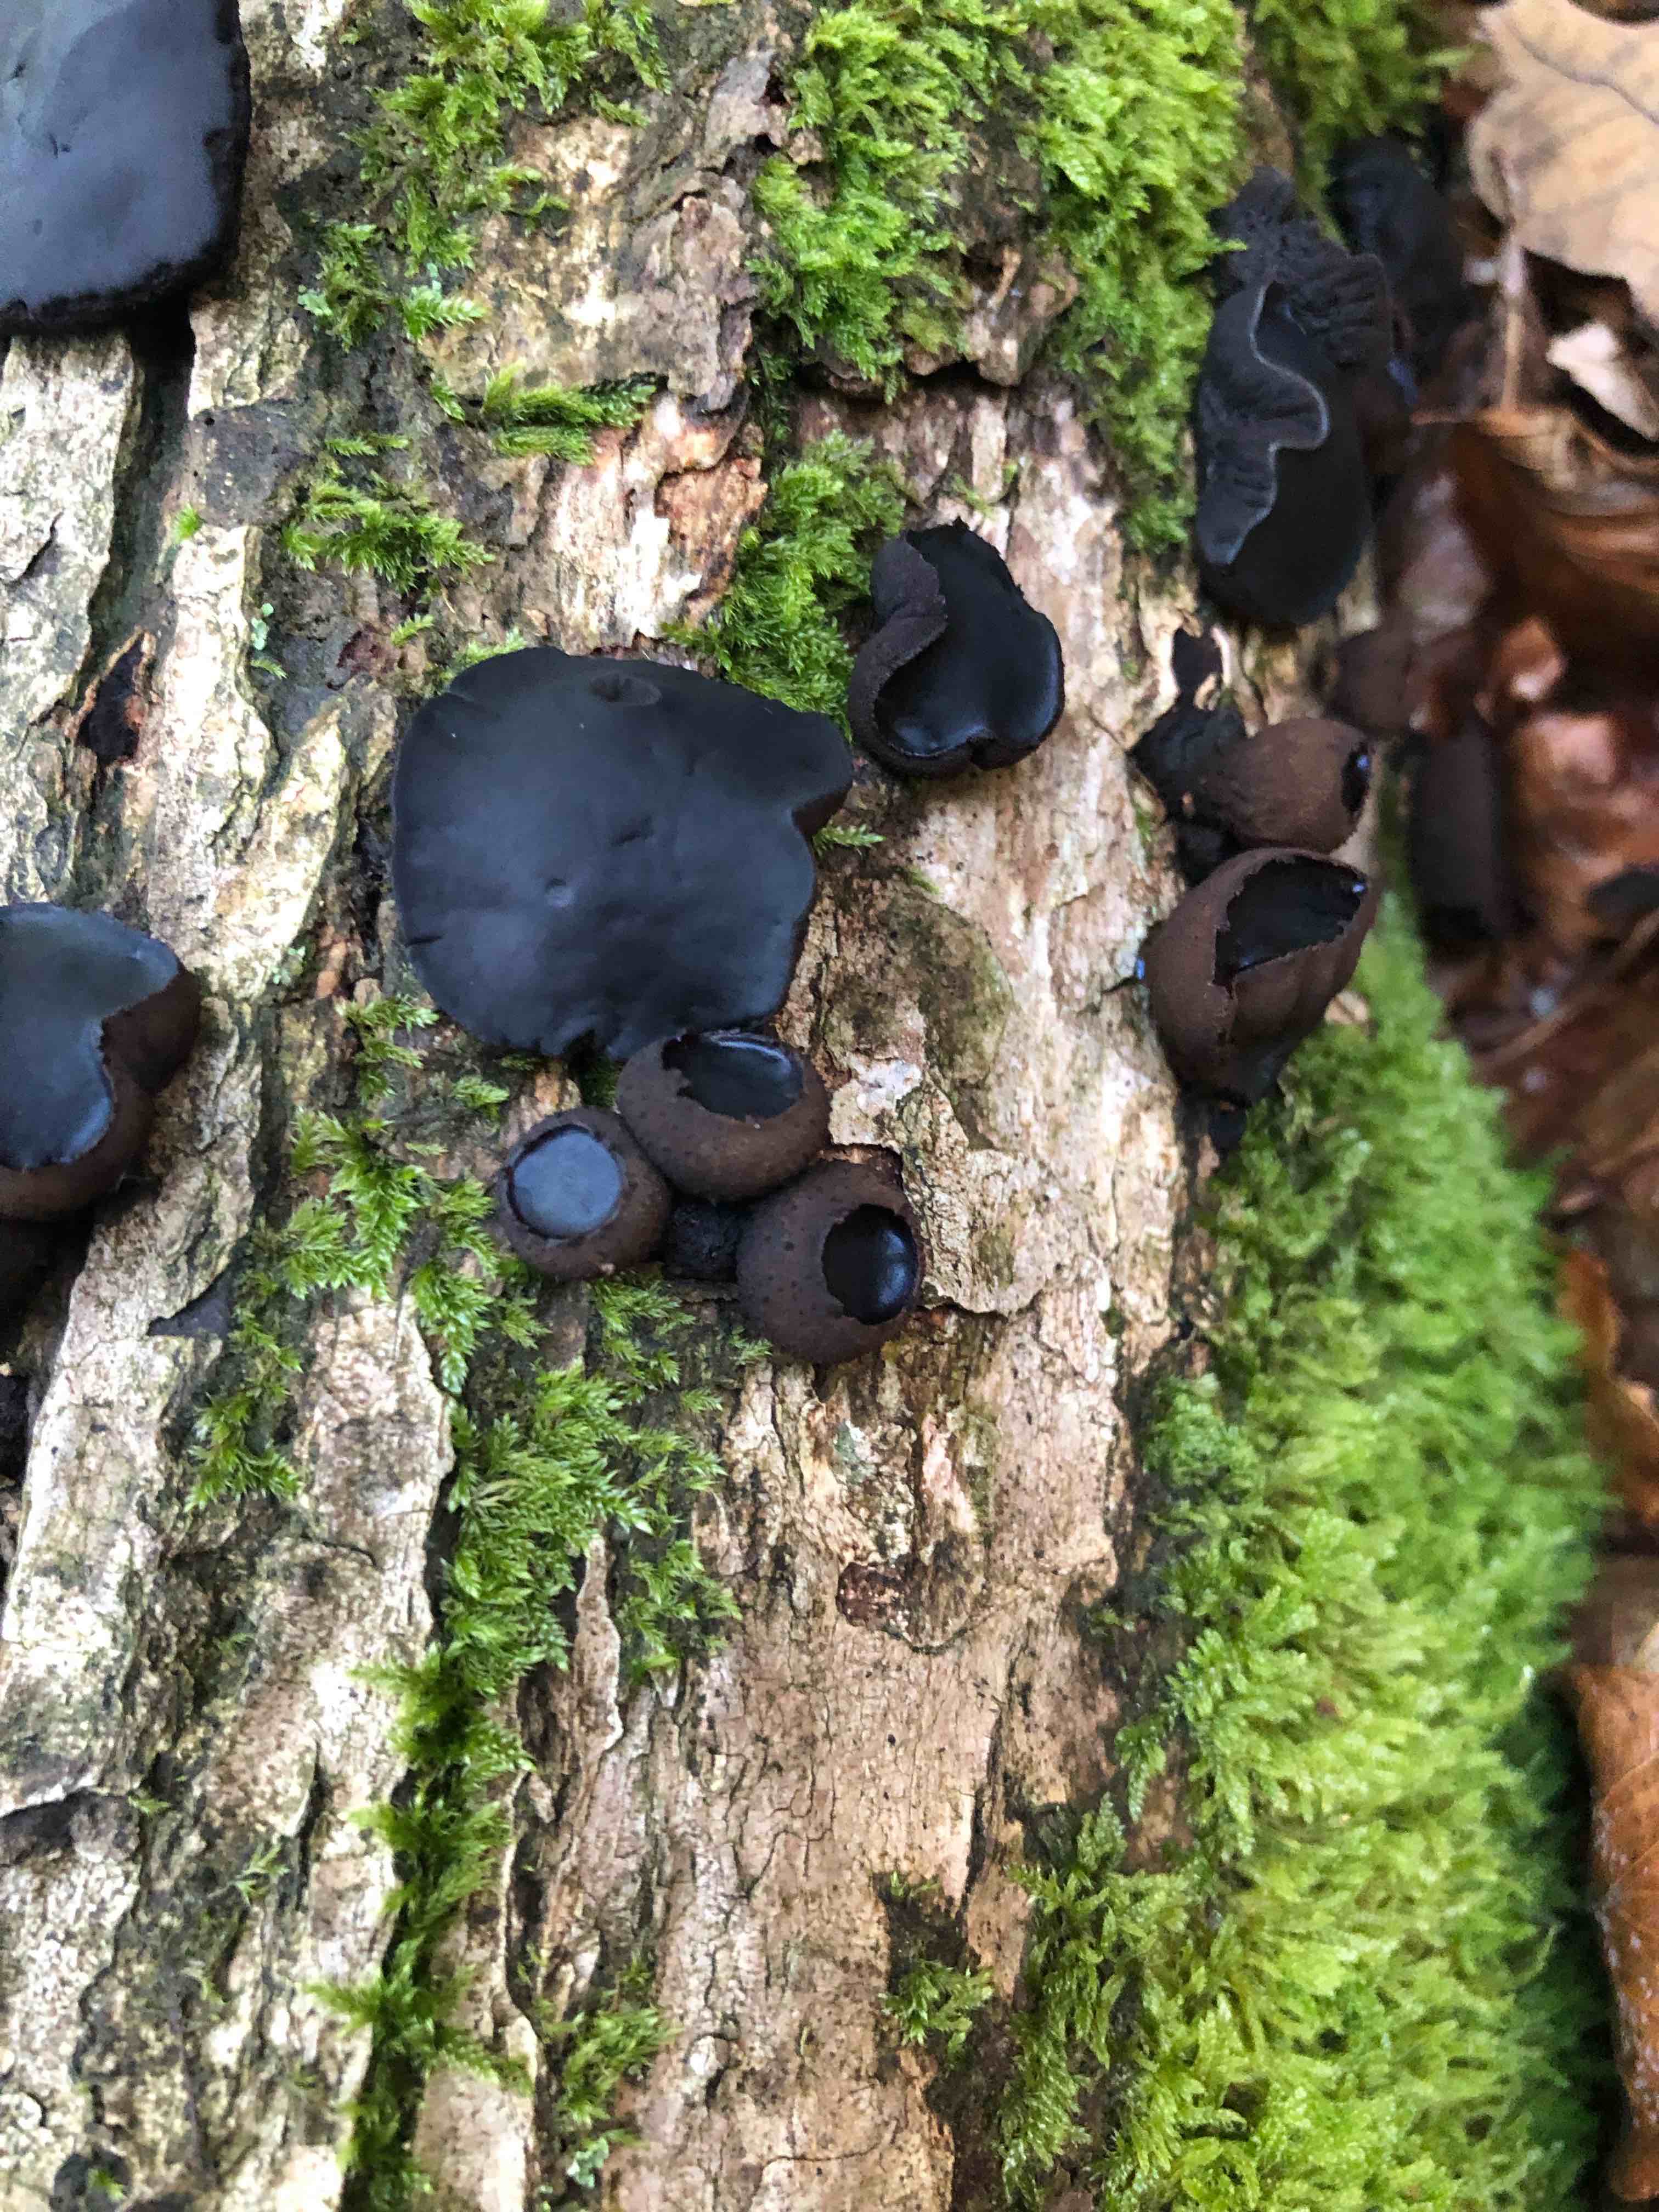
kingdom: Fungi
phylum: Ascomycota
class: Leotiomycetes
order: Phacidiales
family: Phacidiaceae
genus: Bulgaria
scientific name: Bulgaria inquinans
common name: afsmittende topsvamp
